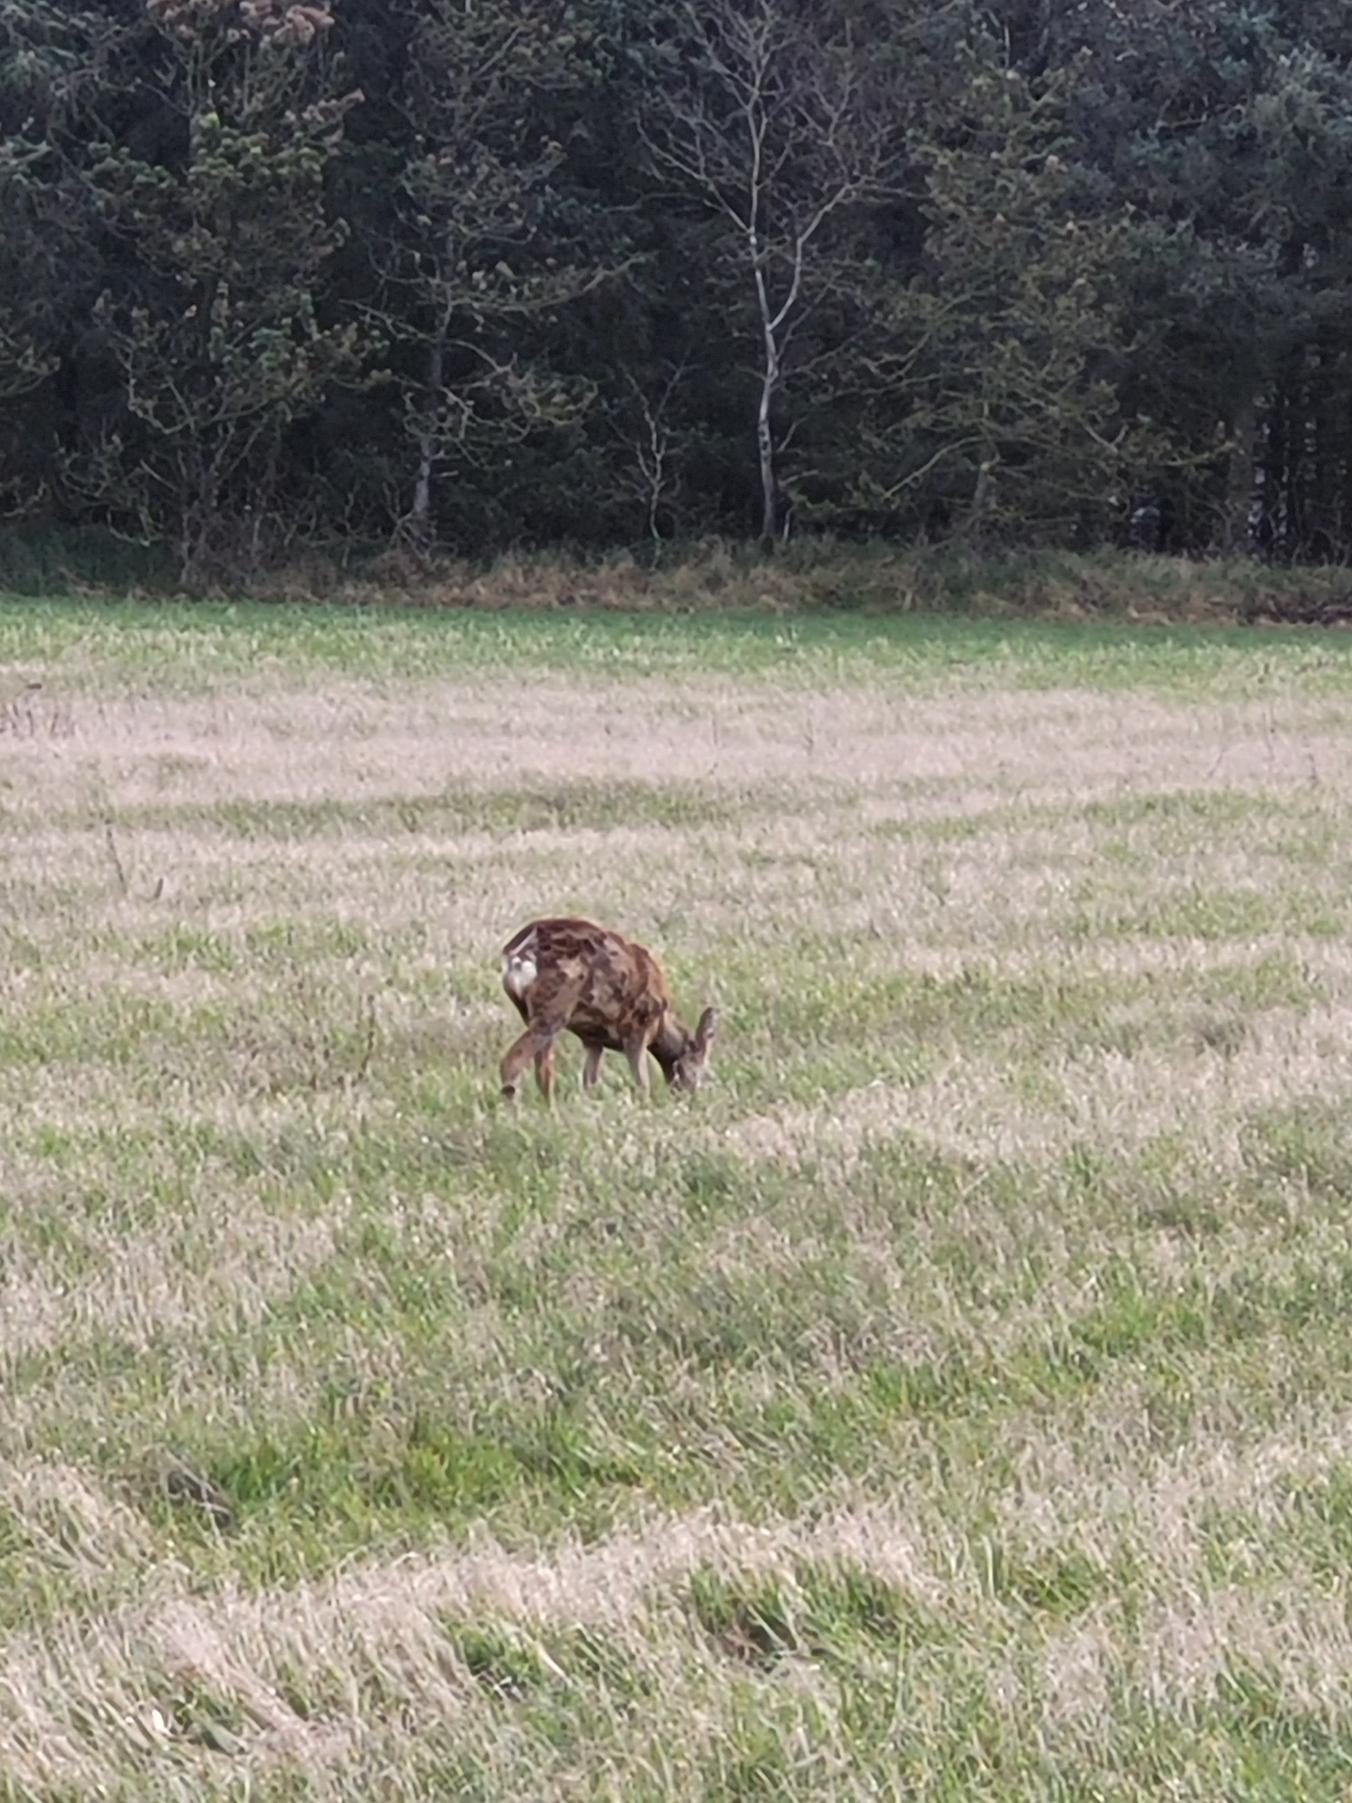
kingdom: Animalia
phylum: Chordata
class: Mammalia
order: Artiodactyla
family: Cervidae
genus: Capreolus
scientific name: Capreolus capreolus
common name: Rådyr
